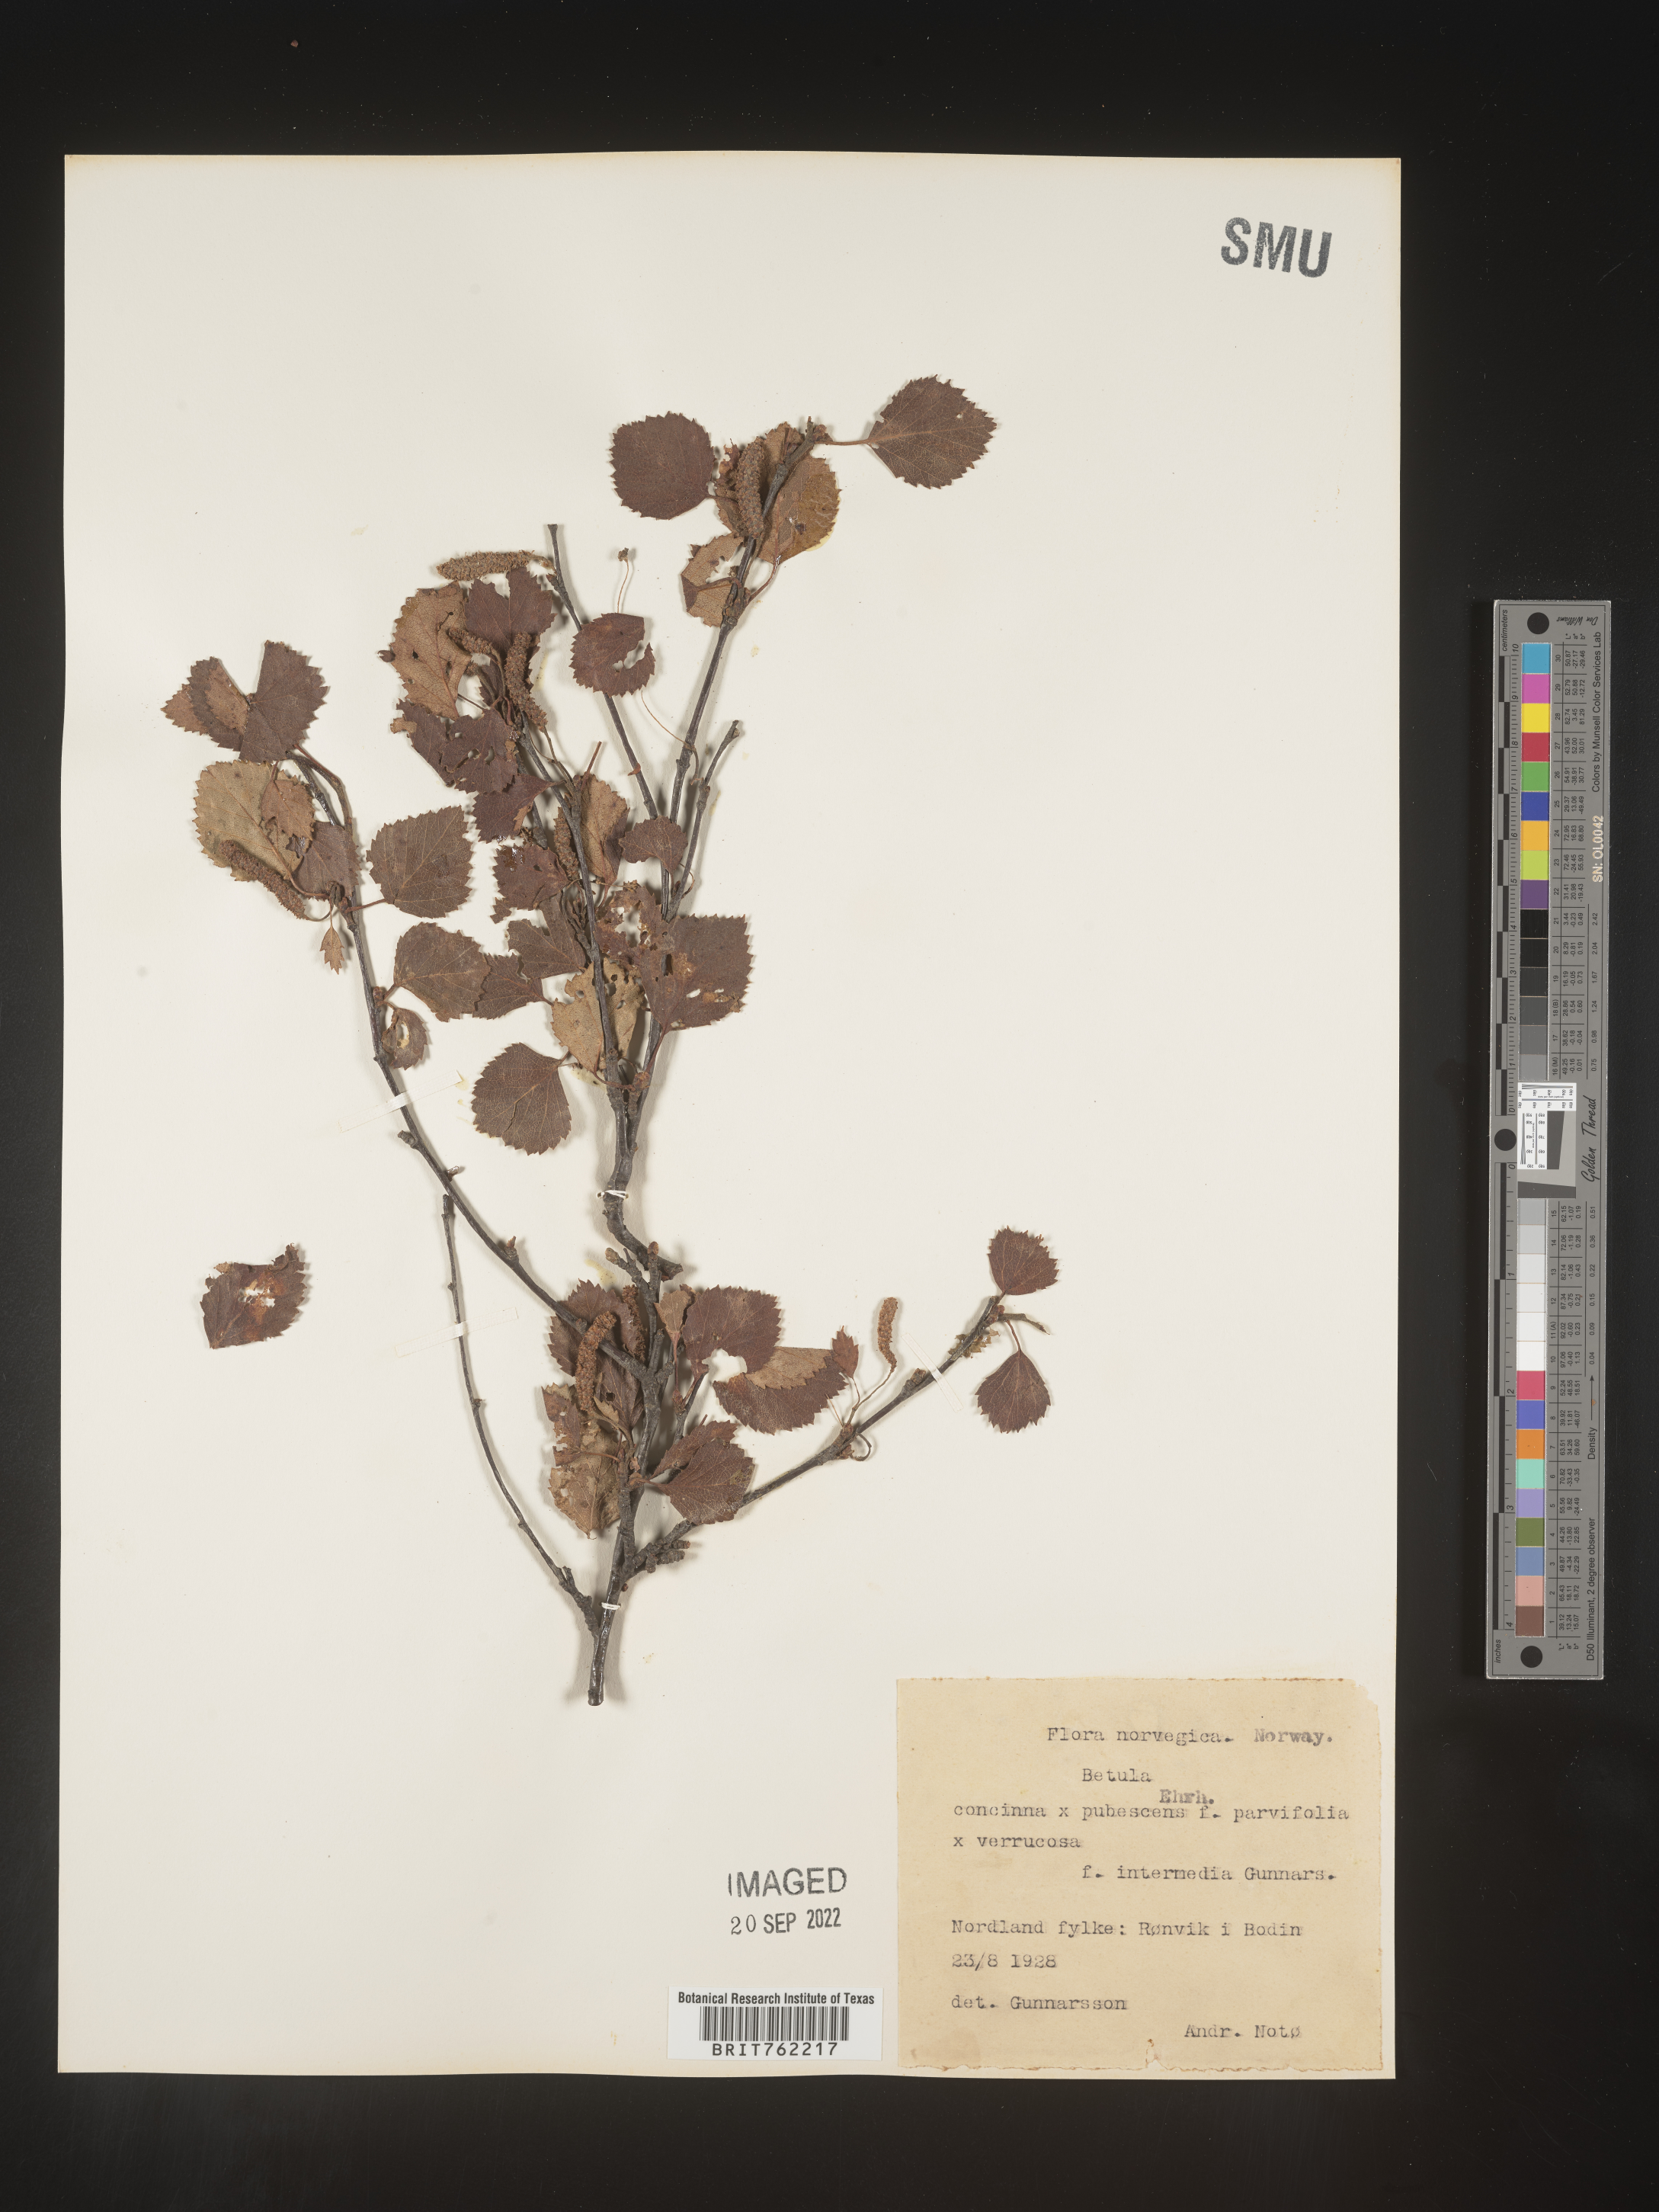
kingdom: Plantae
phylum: Tracheophyta
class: Magnoliopsida
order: Fagales
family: Betulaceae
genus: Betula
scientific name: Betula
